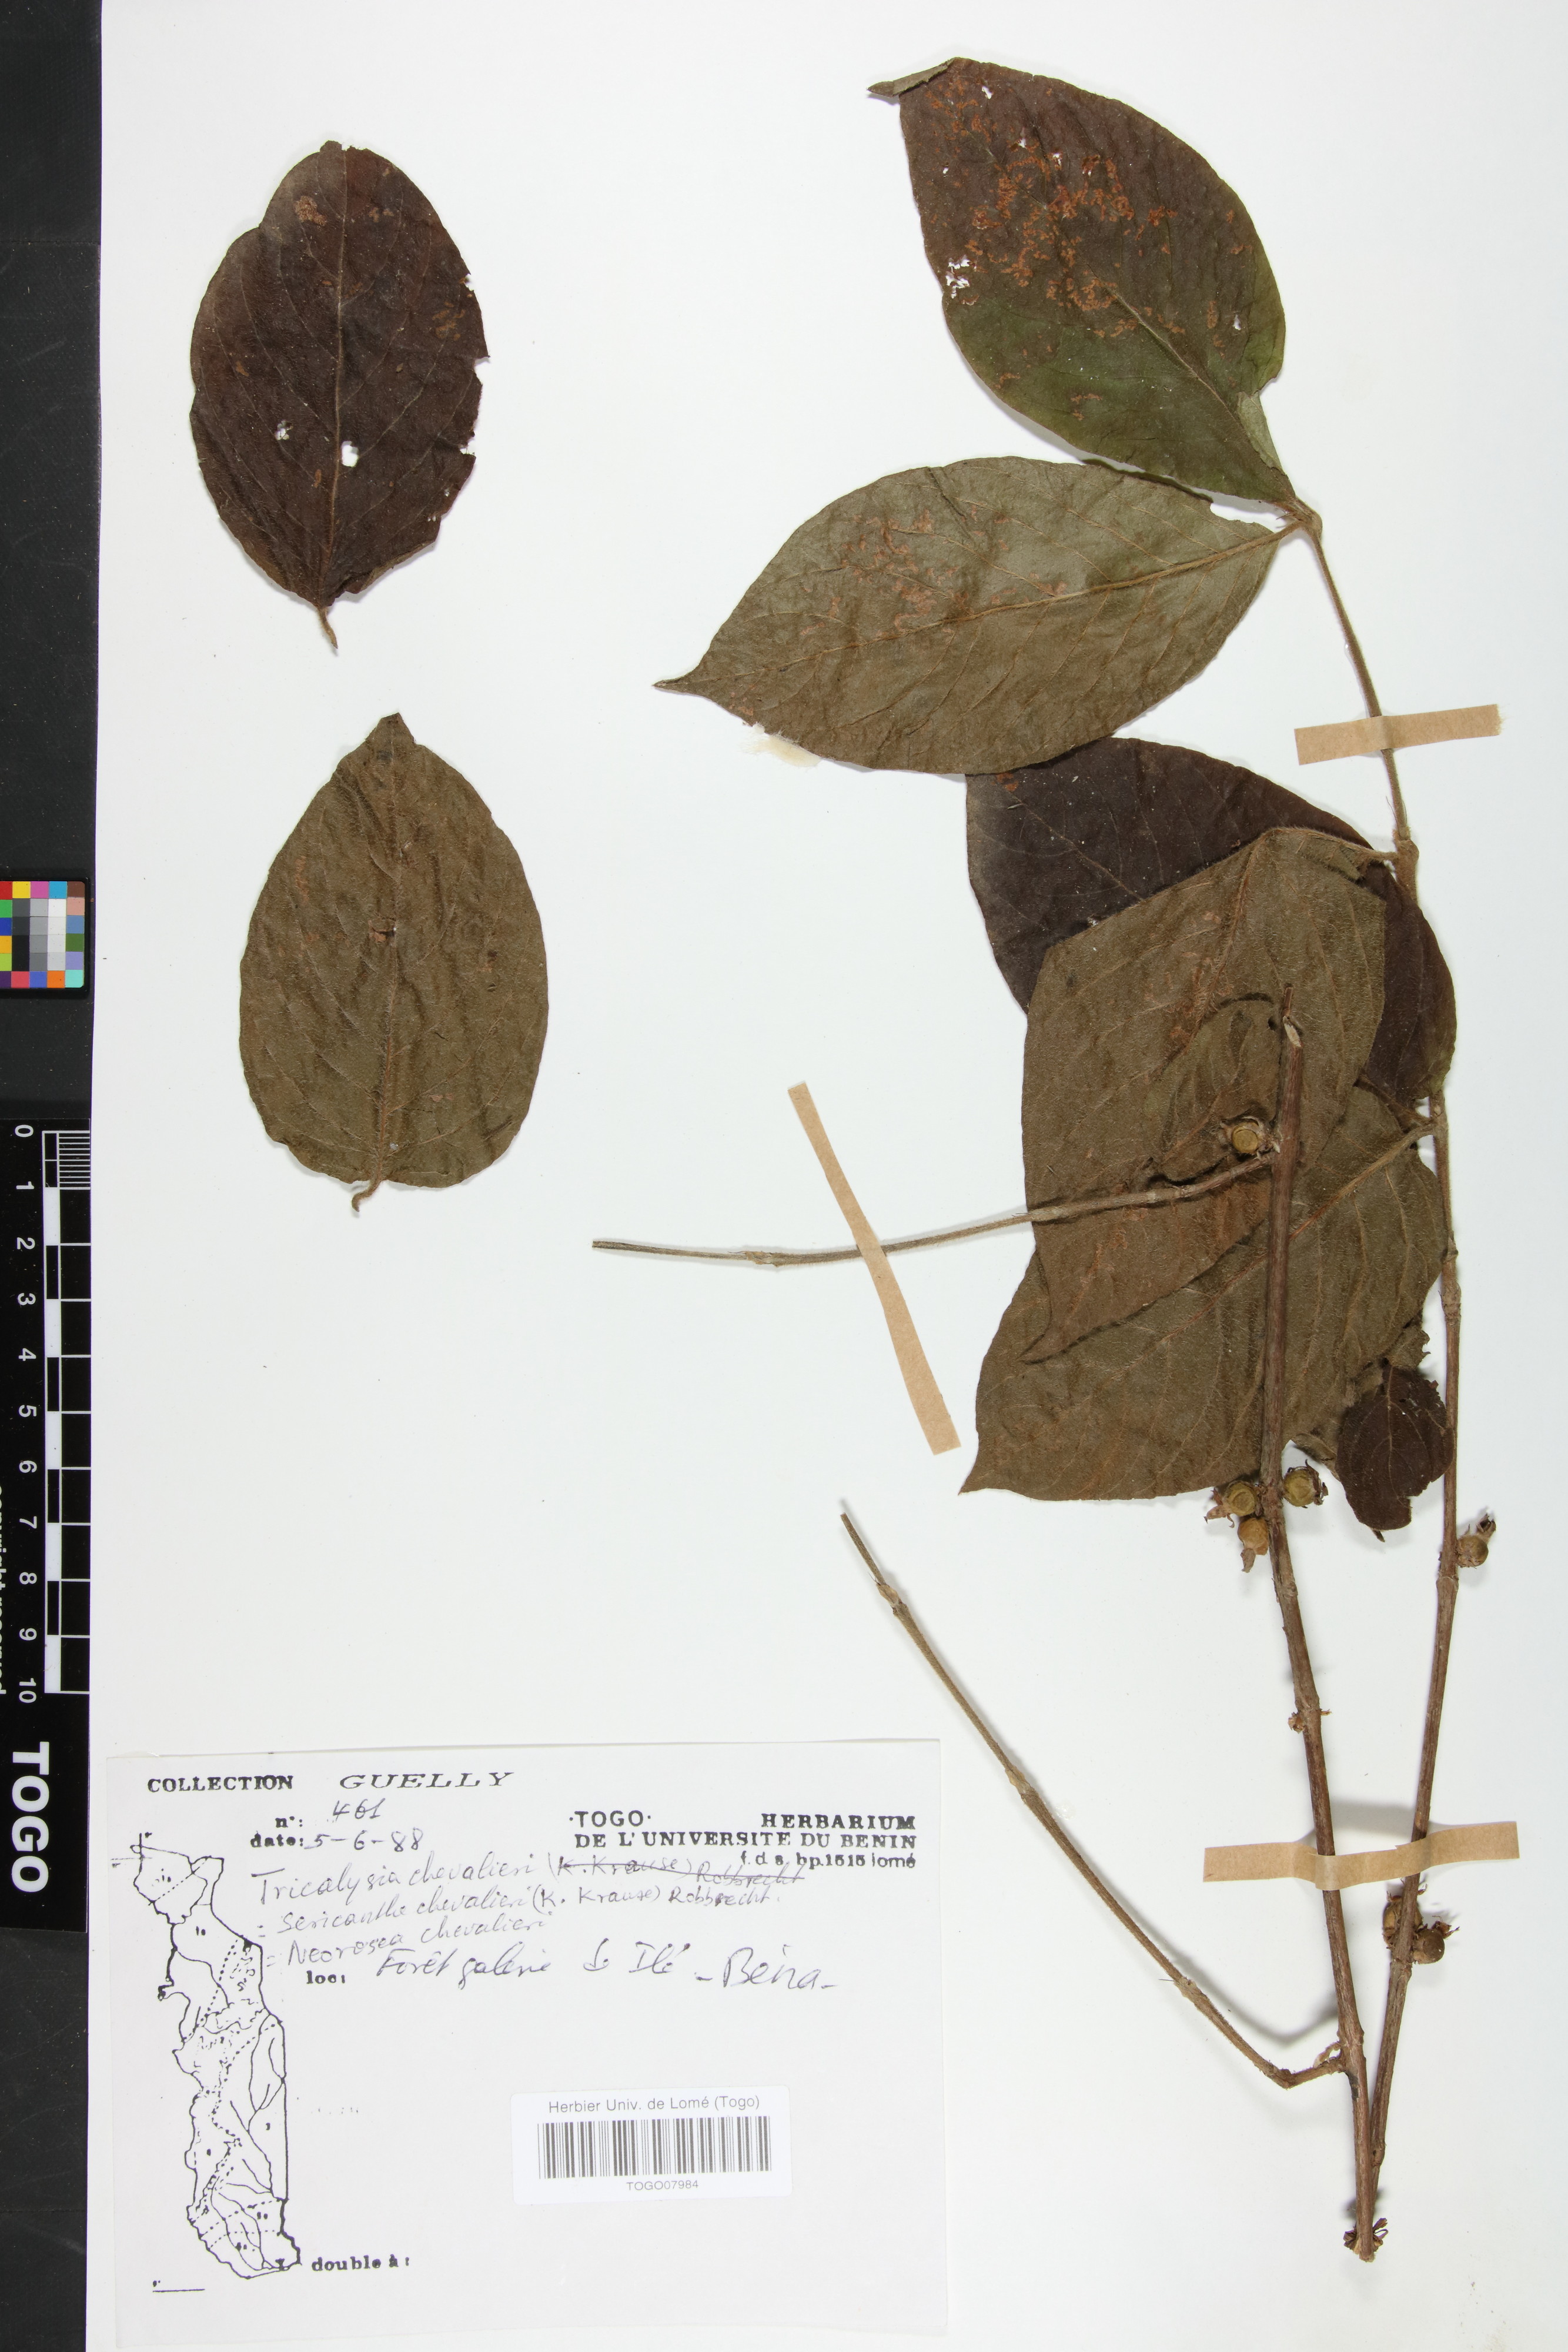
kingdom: Plantae
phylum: Tracheophyta
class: Magnoliopsida
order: Gentianales
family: Rubiaceae
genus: Sericanthe
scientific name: Sericanthe chevalieri
